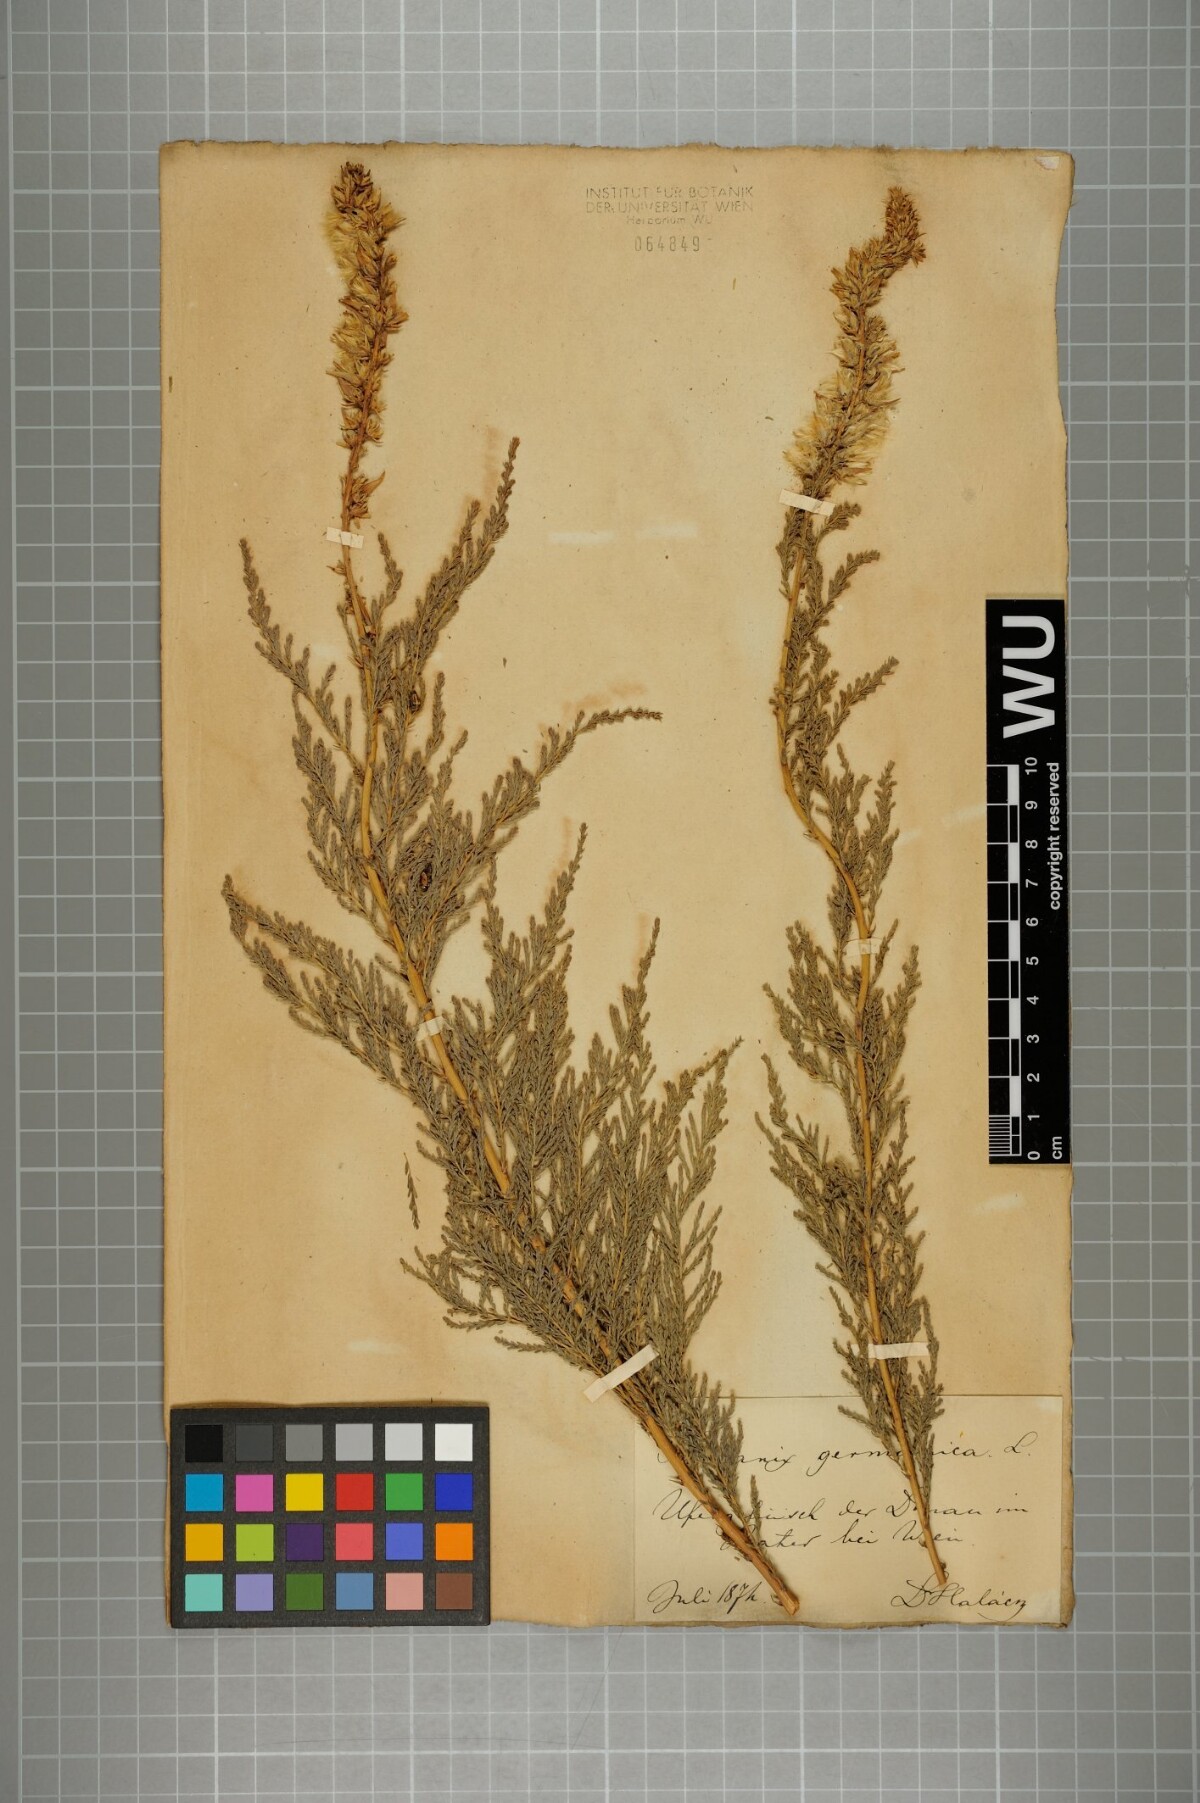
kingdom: Plantae
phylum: Tracheophyta
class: Magnoliopsida
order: Caryophyllales
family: Tamaricaceae
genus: Myricaria
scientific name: Myricaria germanica
